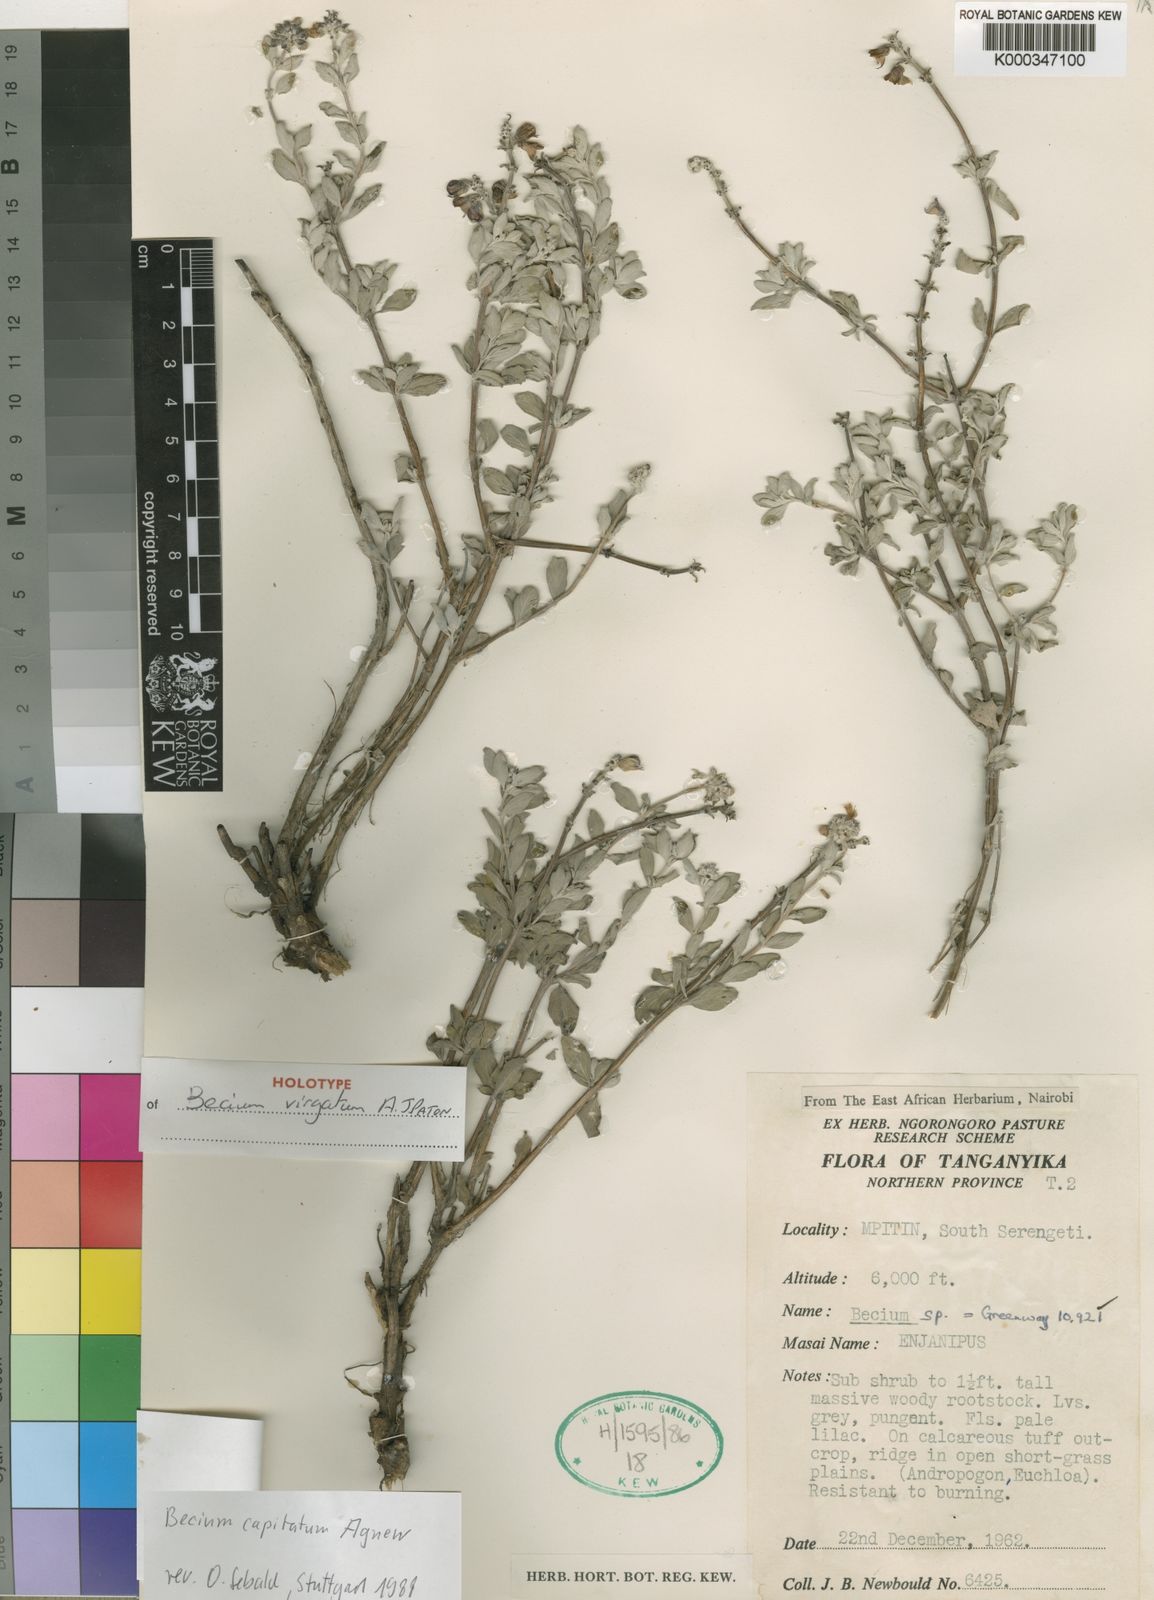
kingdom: Plantae
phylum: Tracheophyta
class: Magnoliopsida
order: Lamiales
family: Lamiaceae
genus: Ocimum
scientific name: Ocimum canescens
